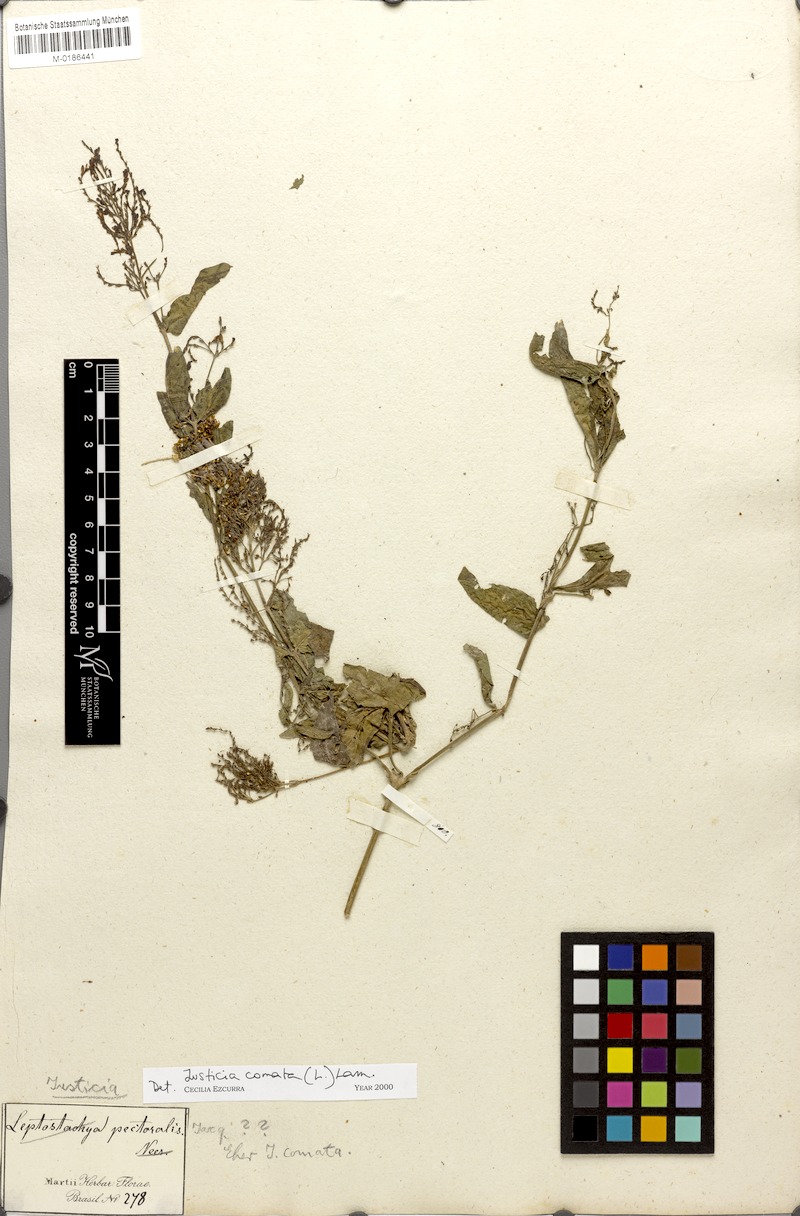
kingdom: Plantae
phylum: Tracheophyta
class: Magnoliopsida
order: Lamiales
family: Acanthaceae
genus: Dianthera
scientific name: Dianthera comata
